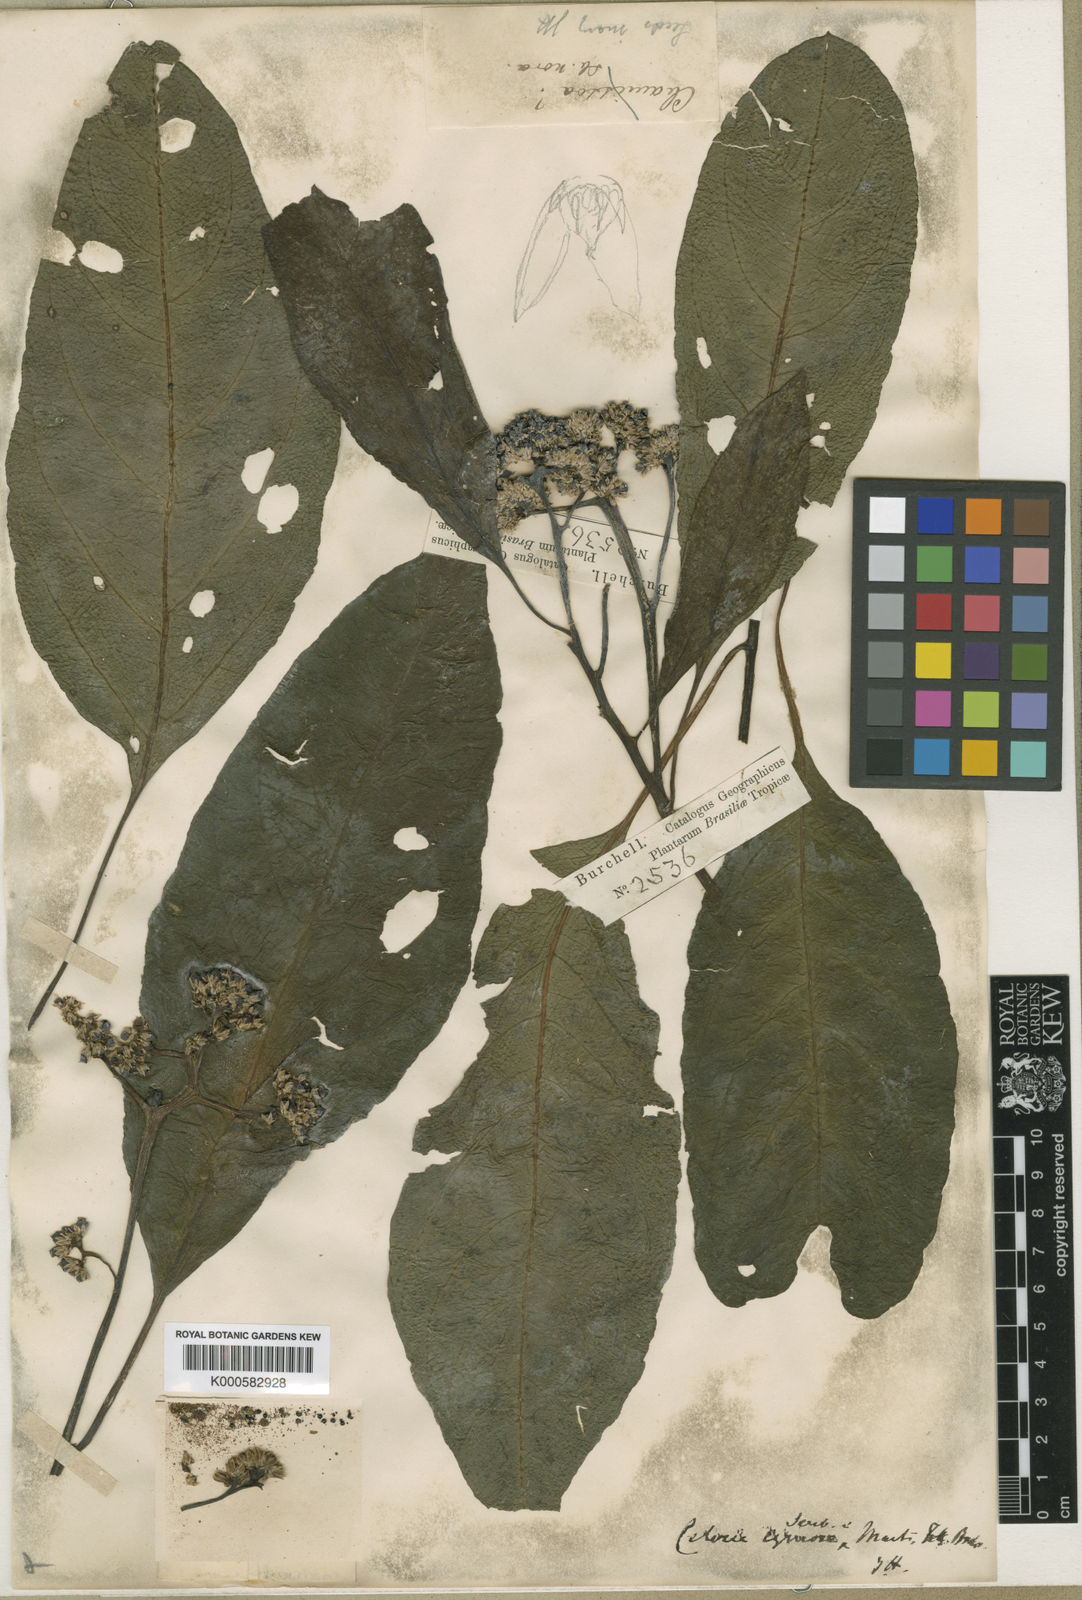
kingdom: Plantae
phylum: Tracheophyta
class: Magnoliopsida
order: Caryophyllales
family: Amaranthaceae
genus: Celosia
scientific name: Celosia corymbifera
